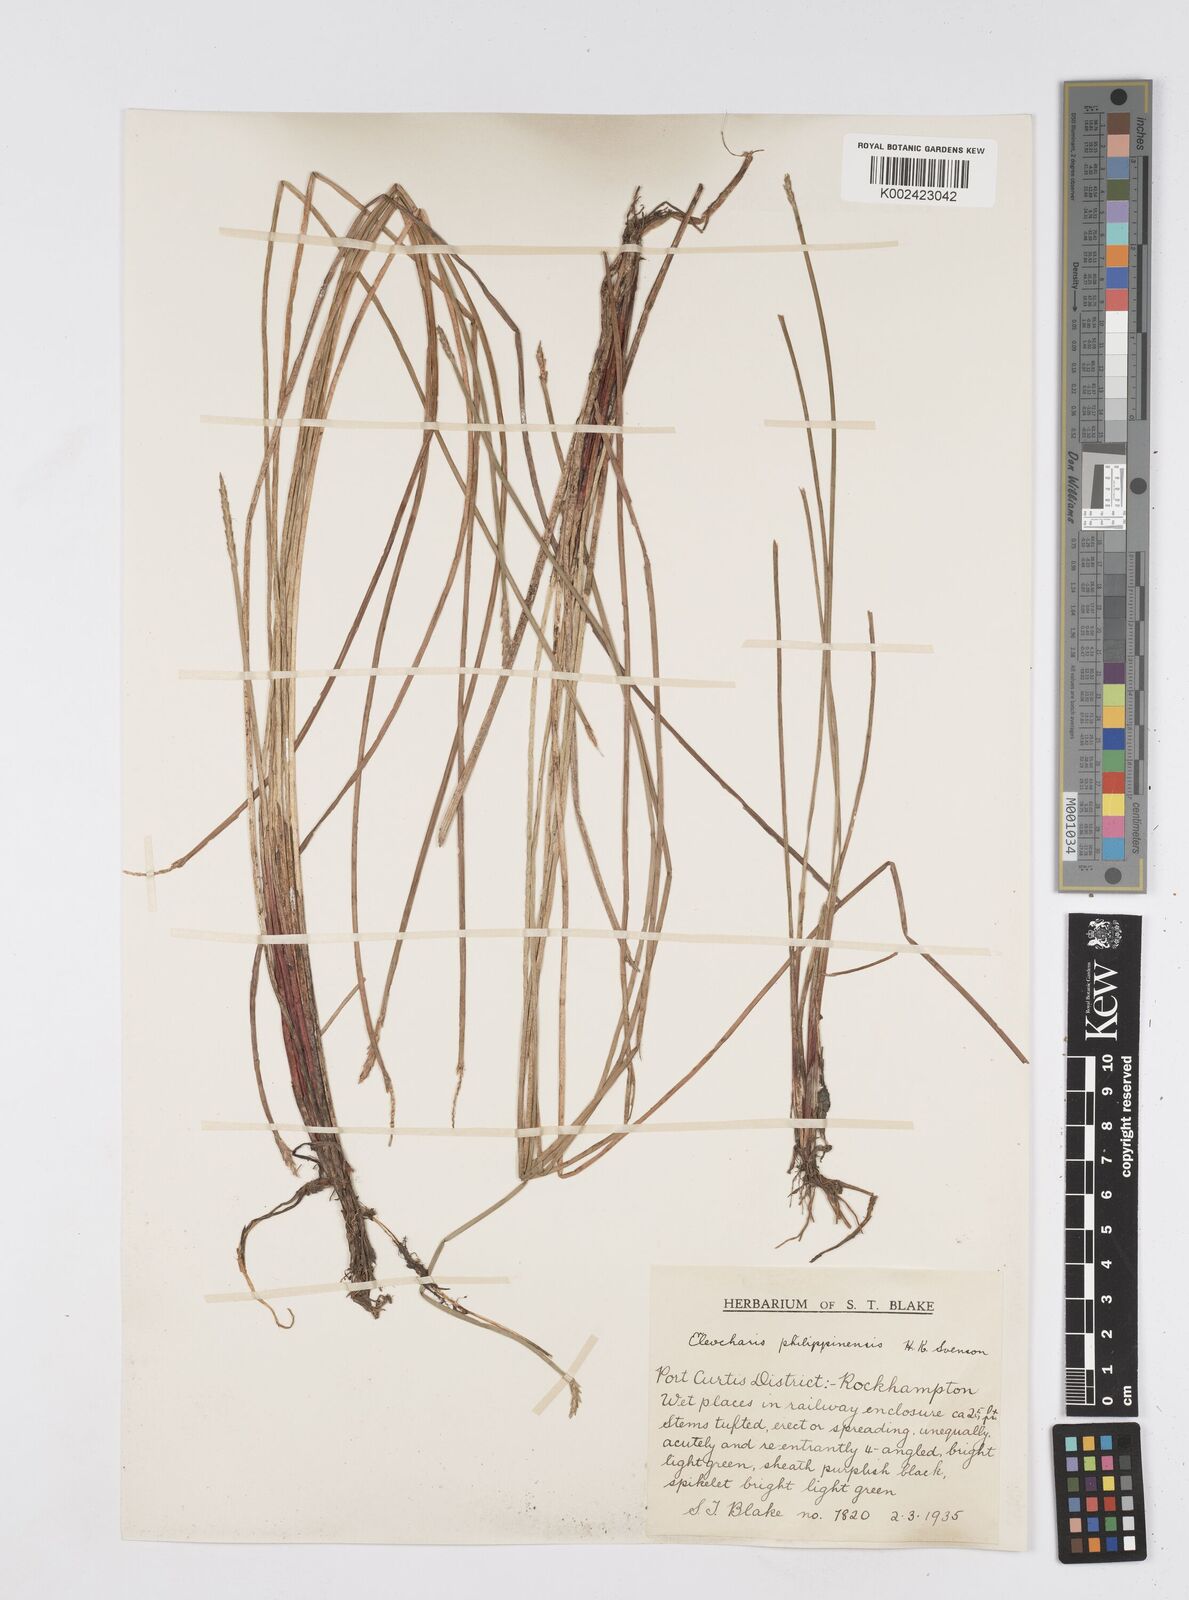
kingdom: Plantae
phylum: Tracheophyta
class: Liliopsida
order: Poales
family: Cyperaceae
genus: Eleocharis
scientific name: Eleocharis nuda
